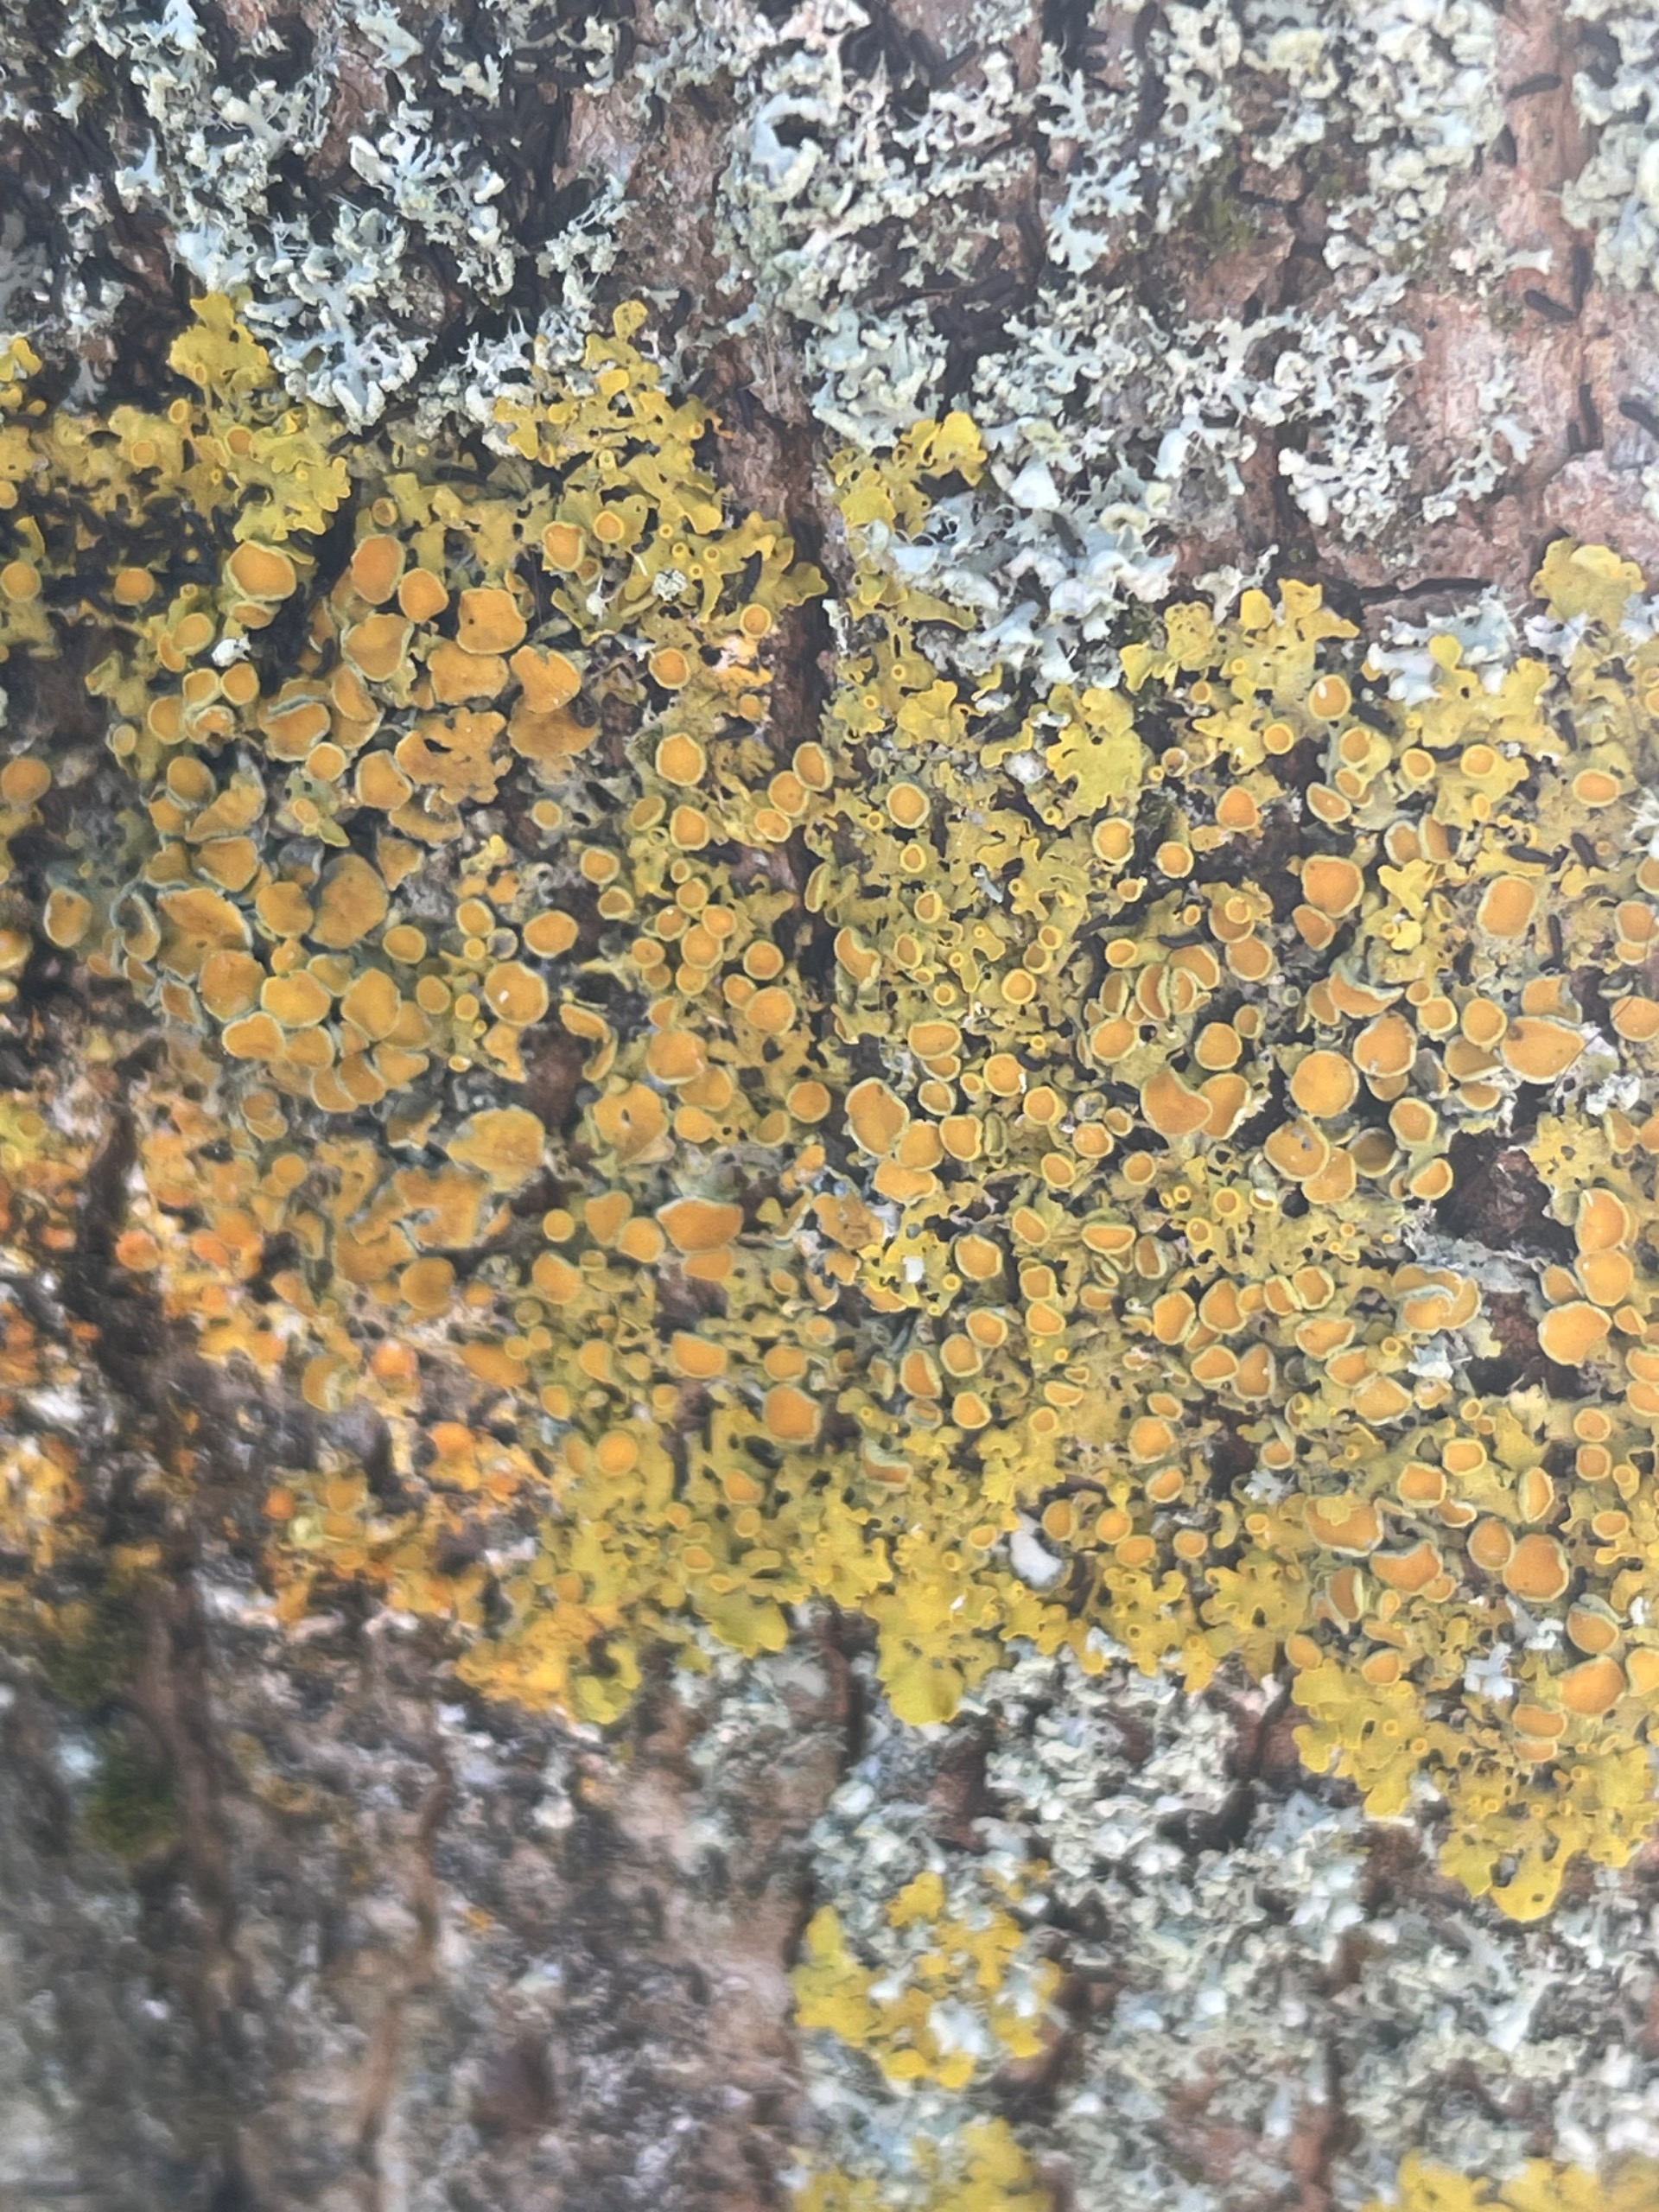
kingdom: Fungi
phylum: Ascomycota
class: Lecanoromycetes
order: Teloschistales
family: Teloschistaceae
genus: Xanthoria
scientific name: Xanthoria parietina
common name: Almindelig væggelav
